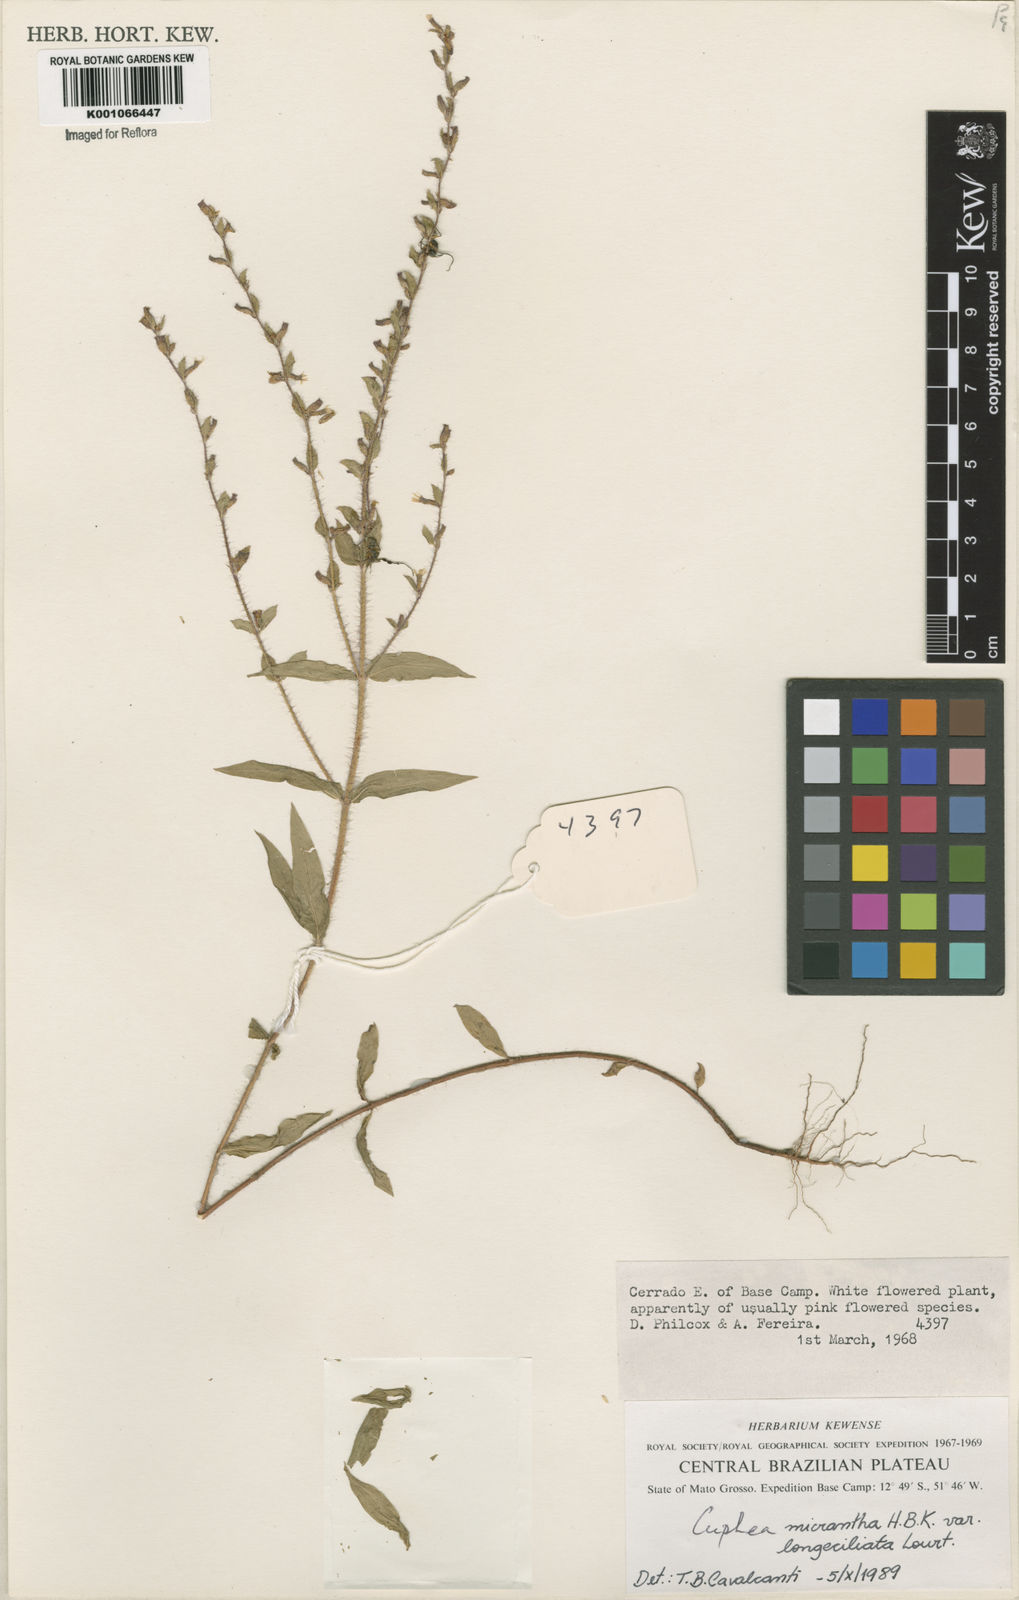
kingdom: Plantae
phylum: Tracheophyta
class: Magnoliopsida
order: Myrtales
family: Lythraceae
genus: Cuphea
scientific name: Cuphea micrantha
